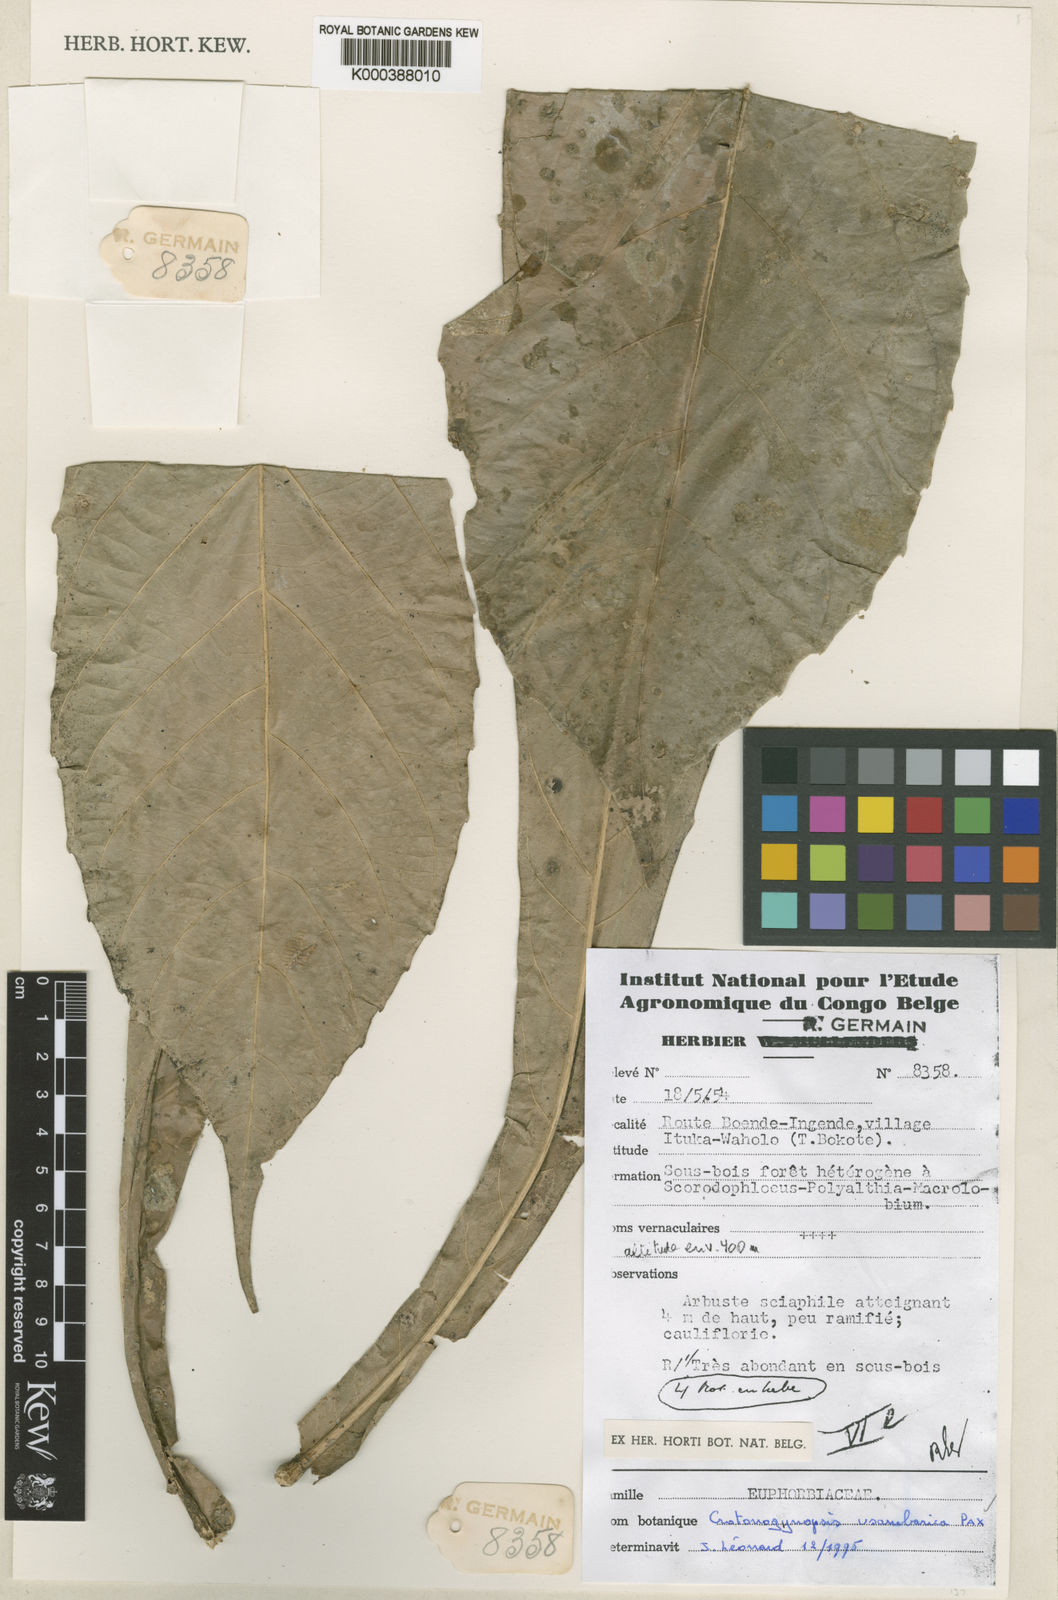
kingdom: Plantae
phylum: Tracheophyta
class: Magnoliopsida
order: Malpighiales
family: Euphorbiaceae
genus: Crotonogynopsis
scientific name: Crotonogynopsis usambarica
